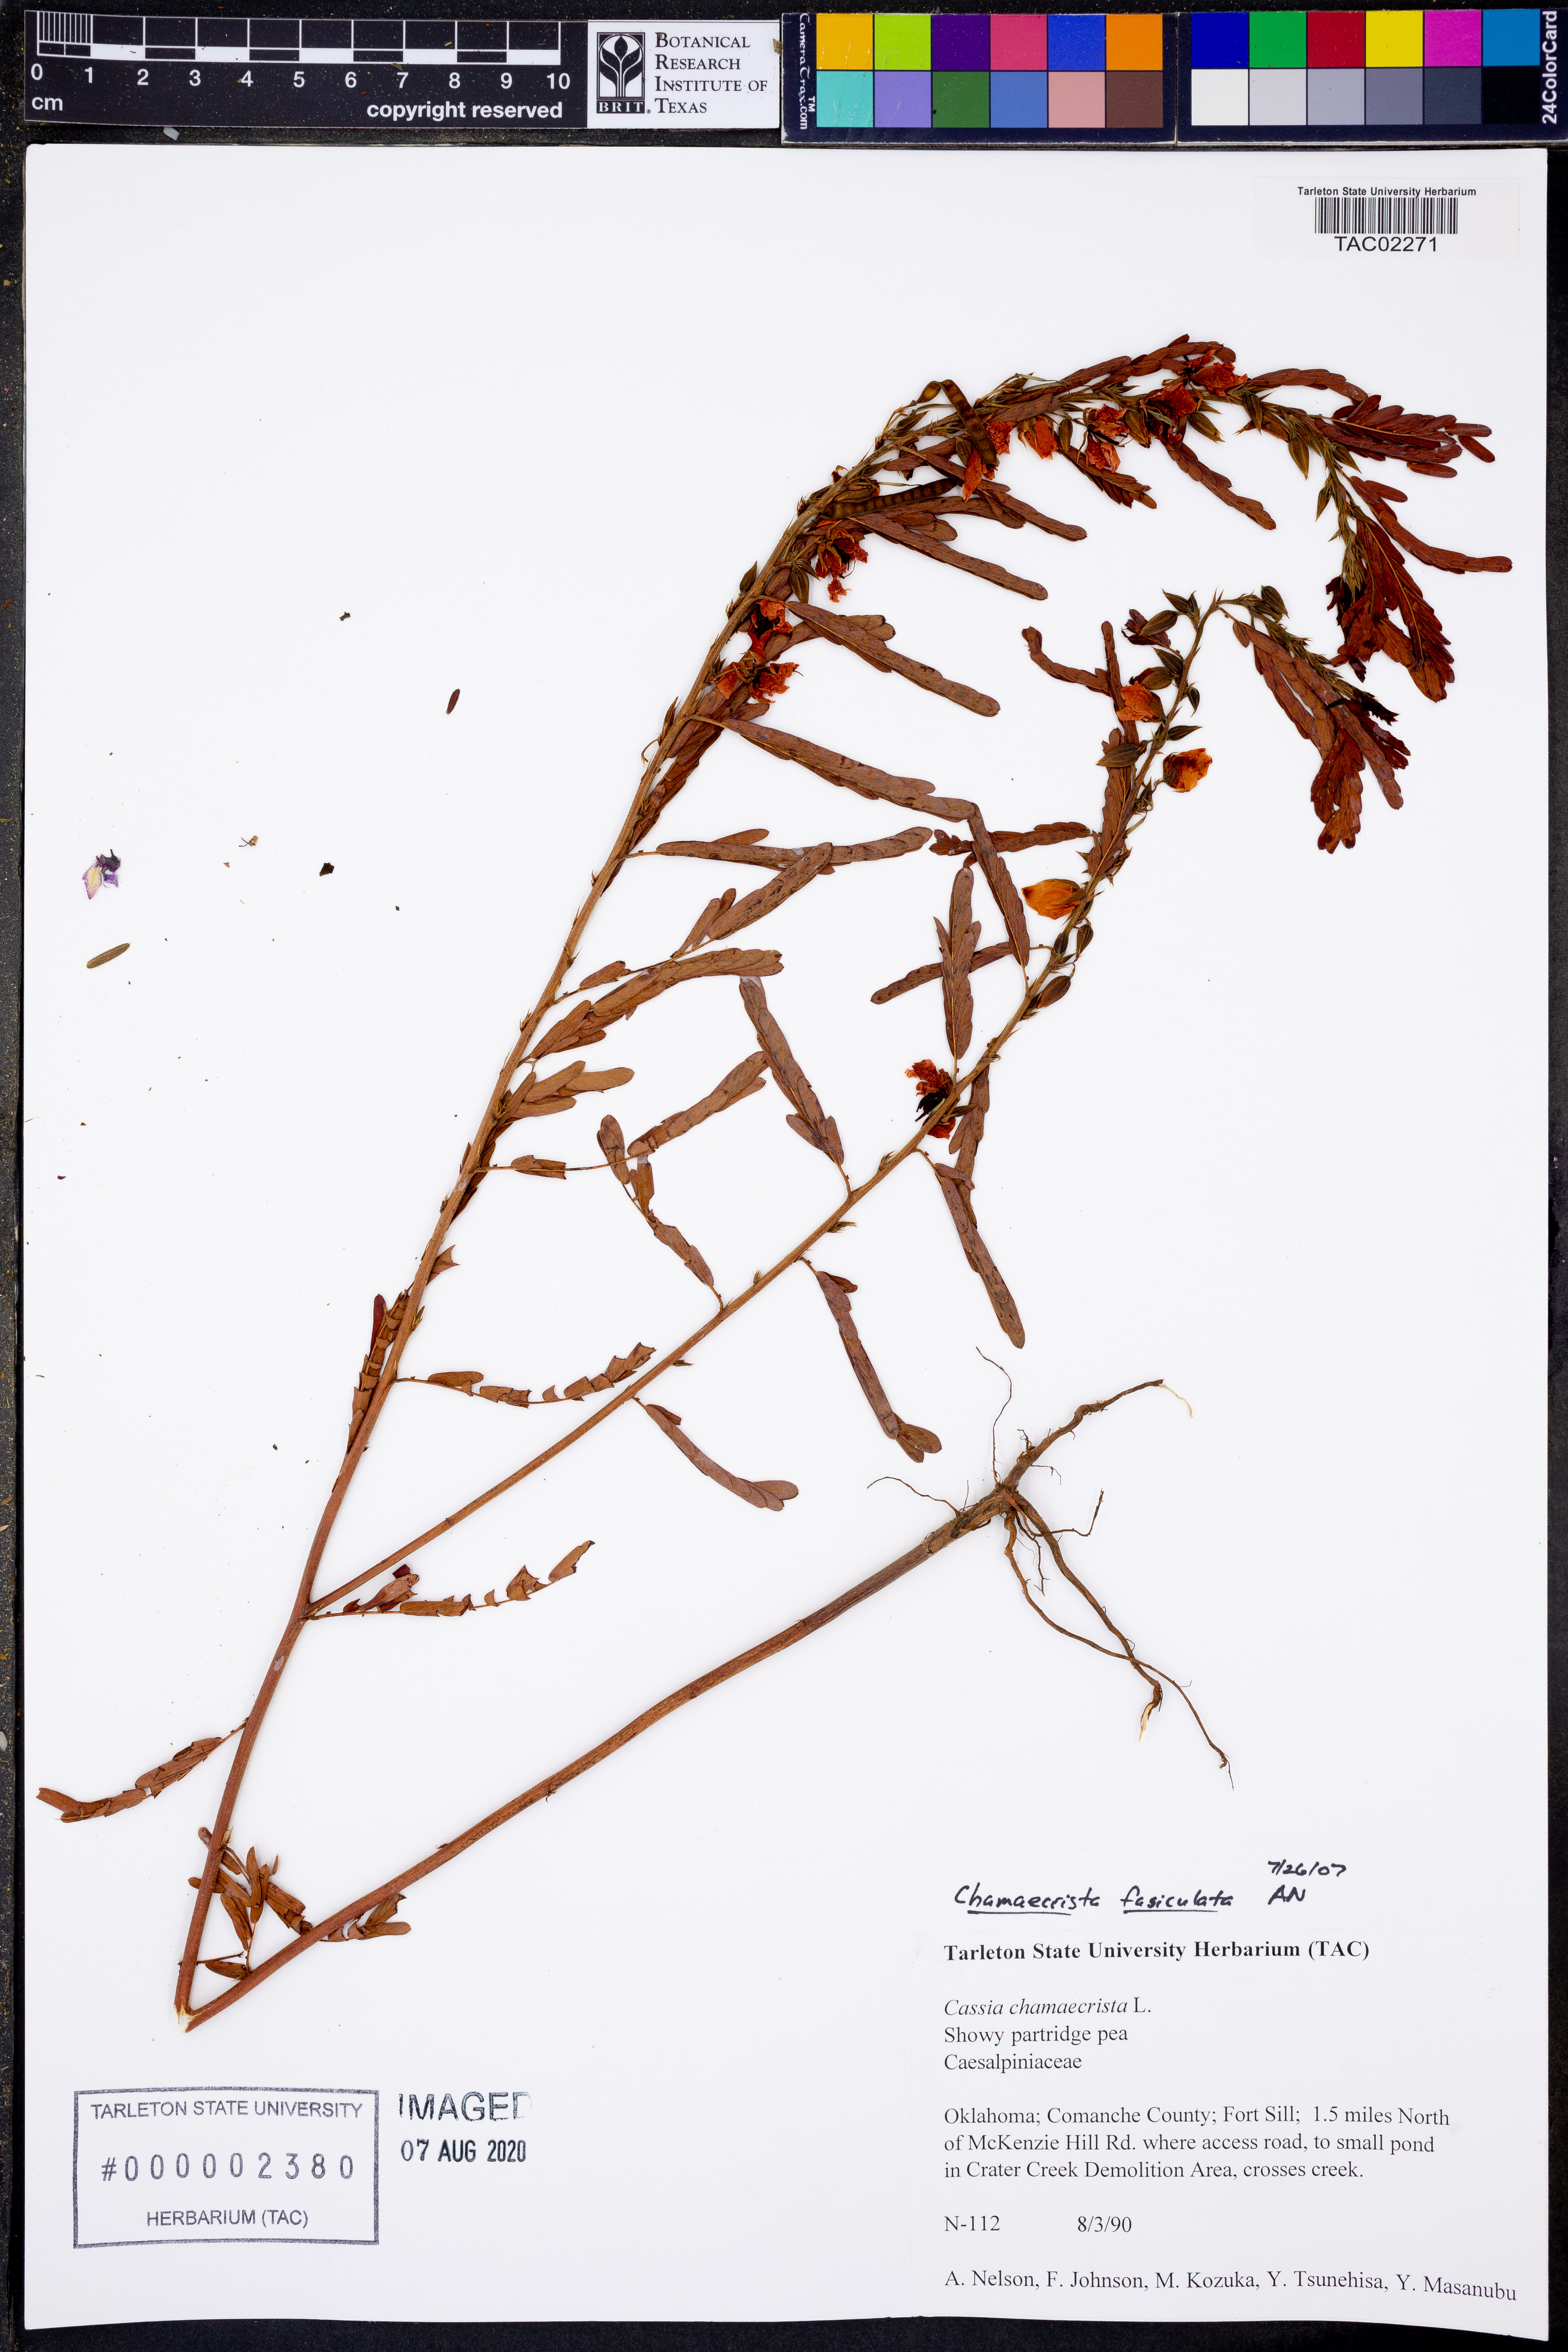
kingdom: Plantae
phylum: Tracheophyta
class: Magnoliopsida
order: Fabales
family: Fabaceae
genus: Chamaecrista
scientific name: Chamaecrista fasciculata
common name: Golden cassia
